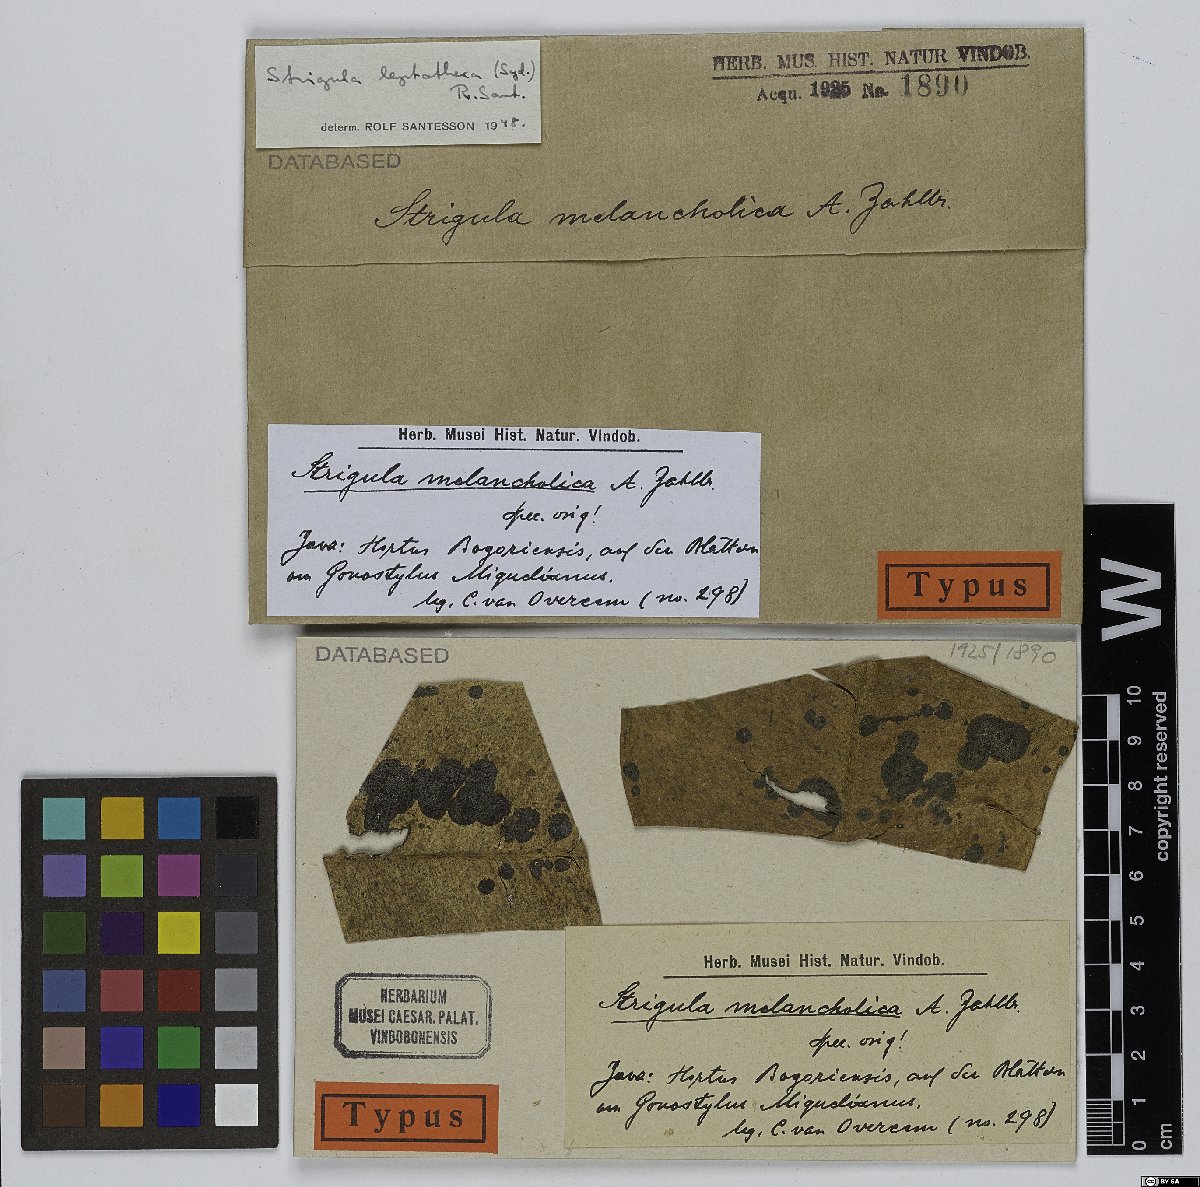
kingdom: Fungi
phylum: Ascomycota
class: Dothideomycetes
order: Strigulales
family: Strigulaceae
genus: Strigula
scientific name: Strigula
